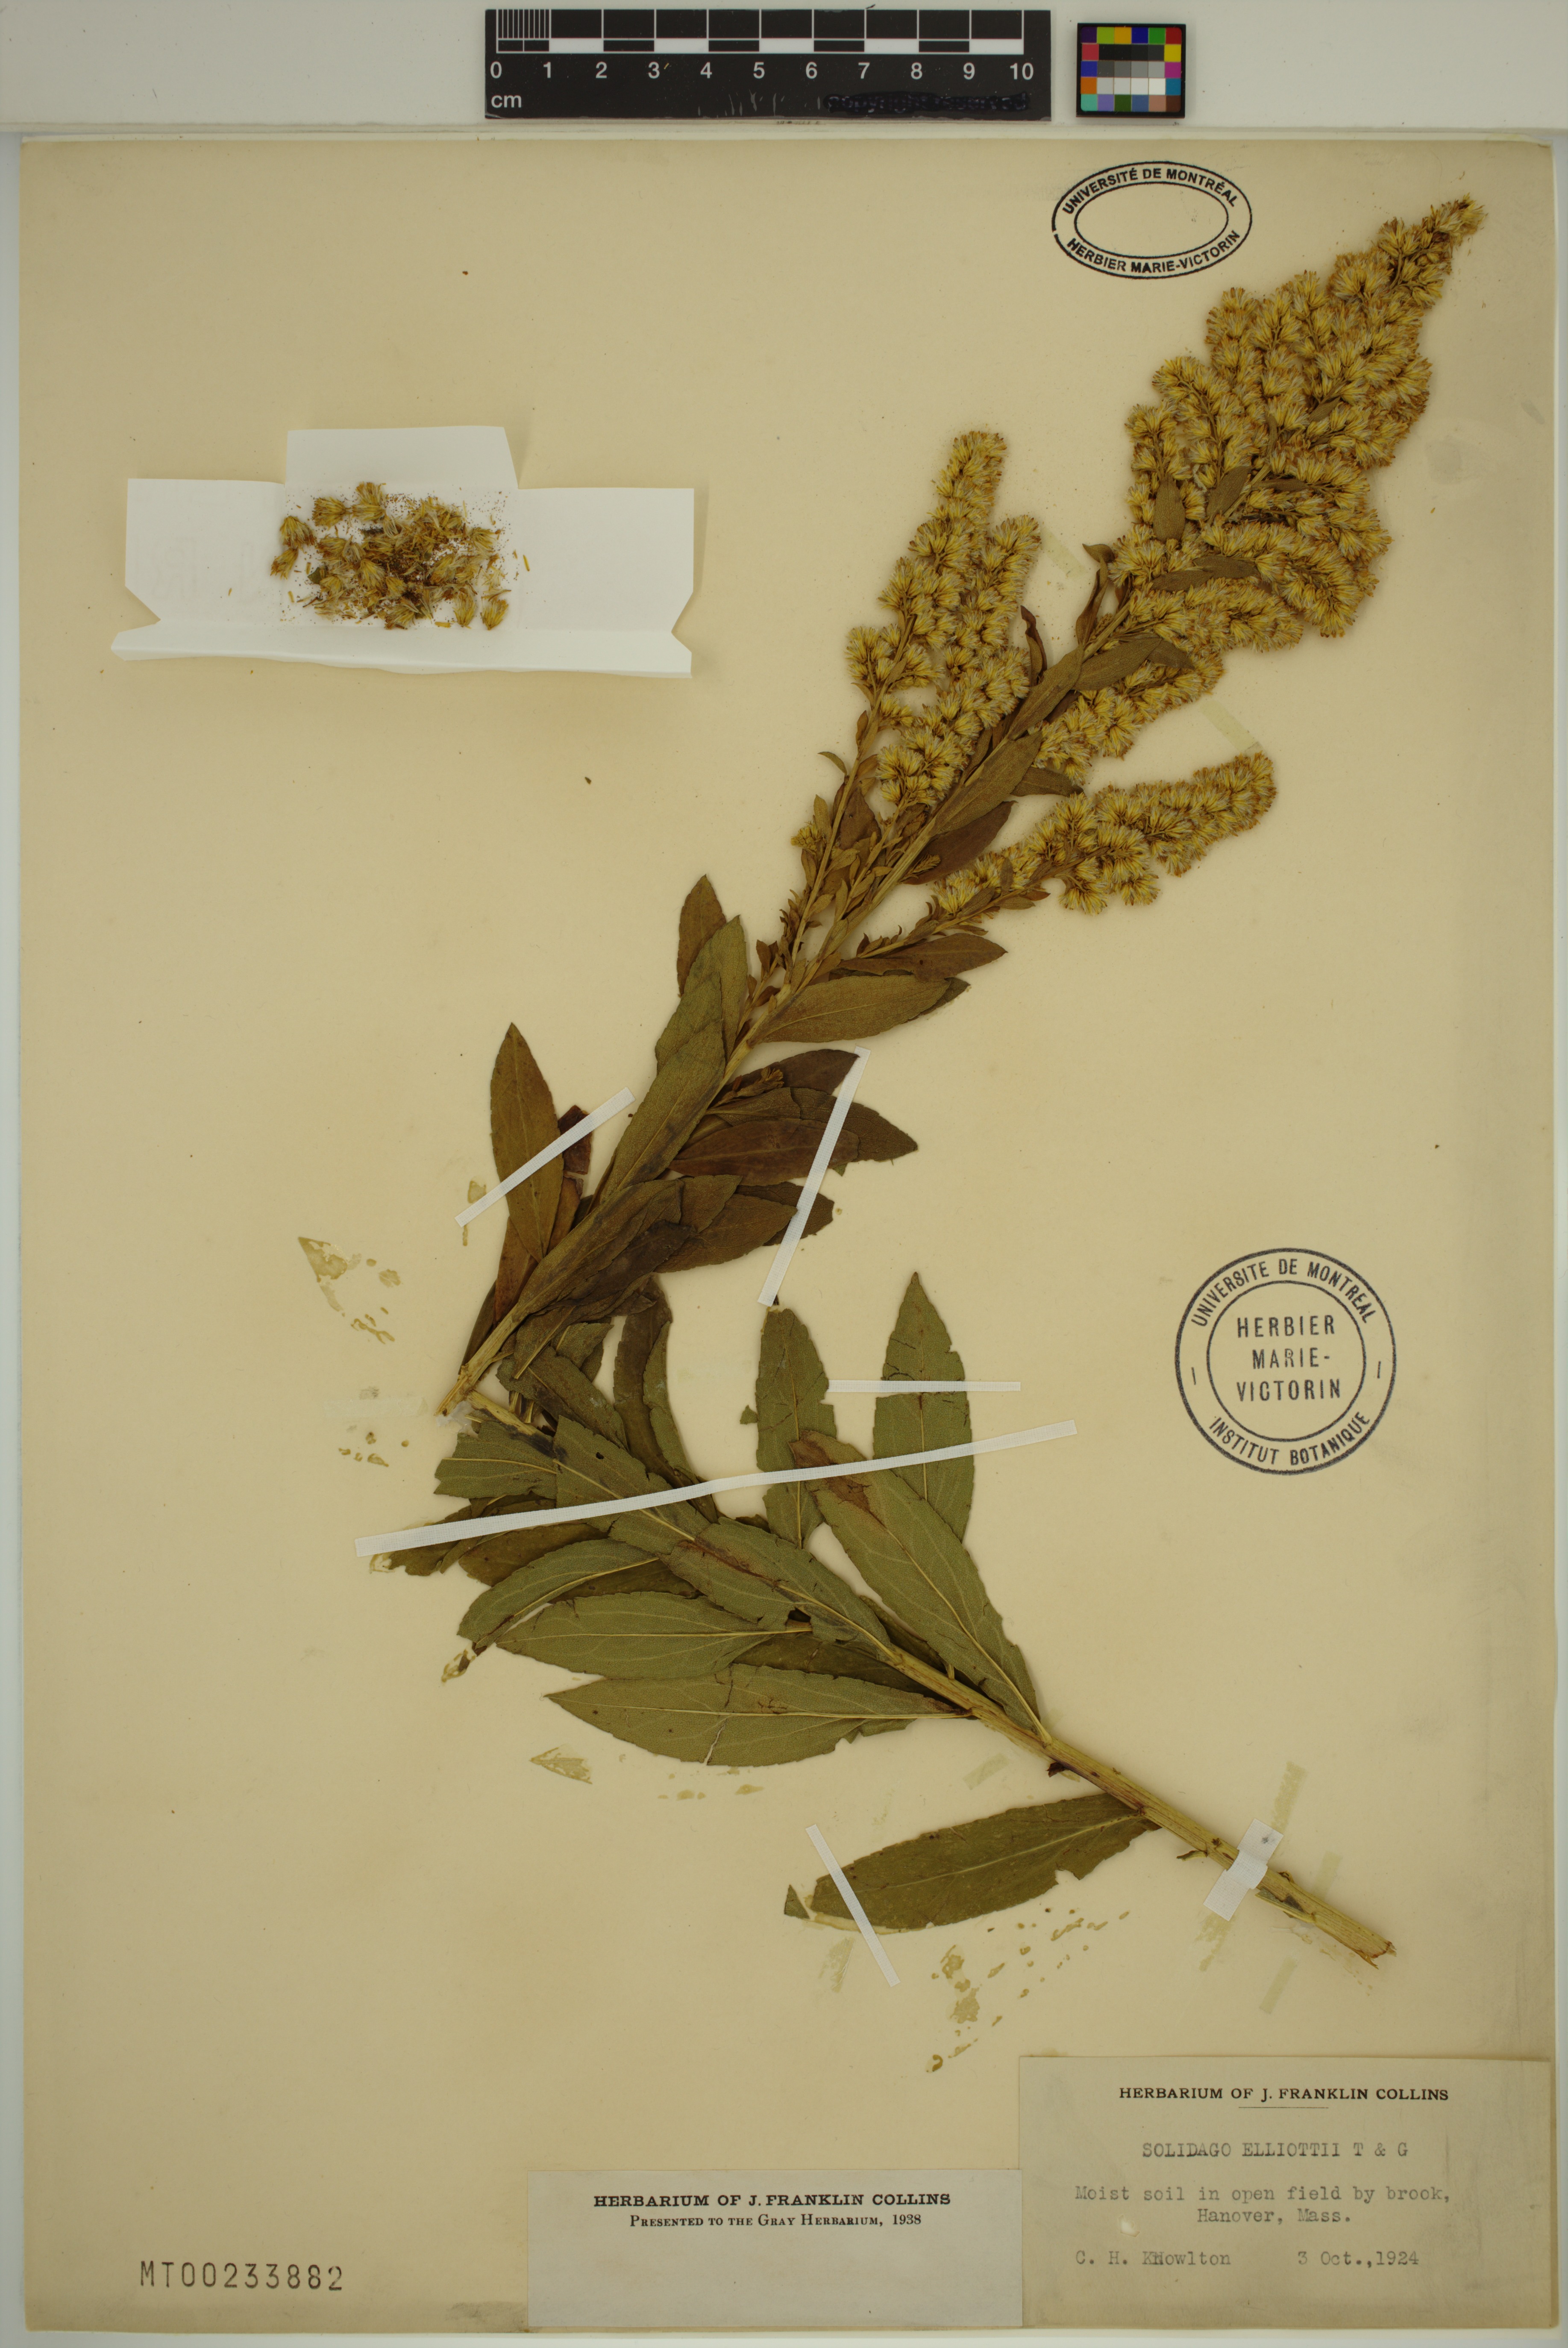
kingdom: Plantae
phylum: Tracheophyta
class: Magnoliopsida
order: Asterales
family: Asteraceae
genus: Solidago
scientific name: Solidago latissimifolia
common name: Elliott's goldenrod
